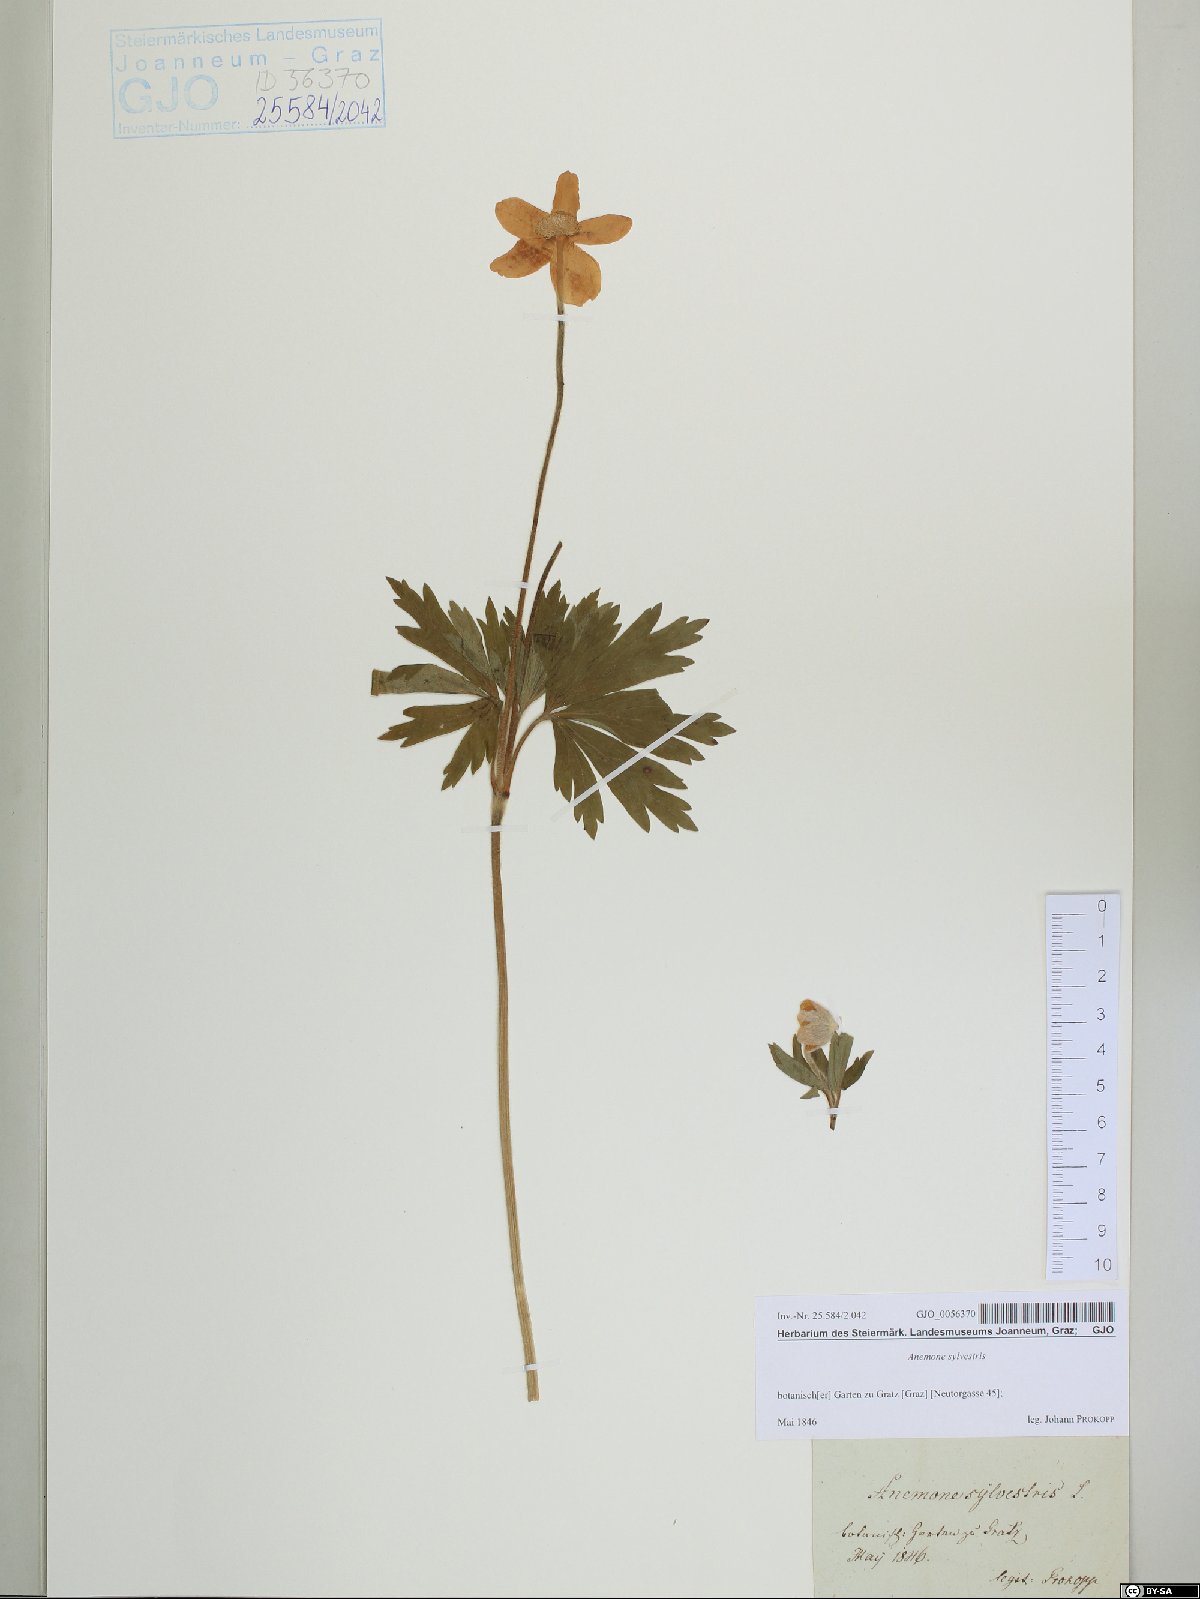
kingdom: Plantae
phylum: Tracheophyta
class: Magnoliopsida
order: Ranunculales
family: Ranunculaceae
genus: Anemone
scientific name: Anemone sylvestris
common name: Snowdrop anemone
